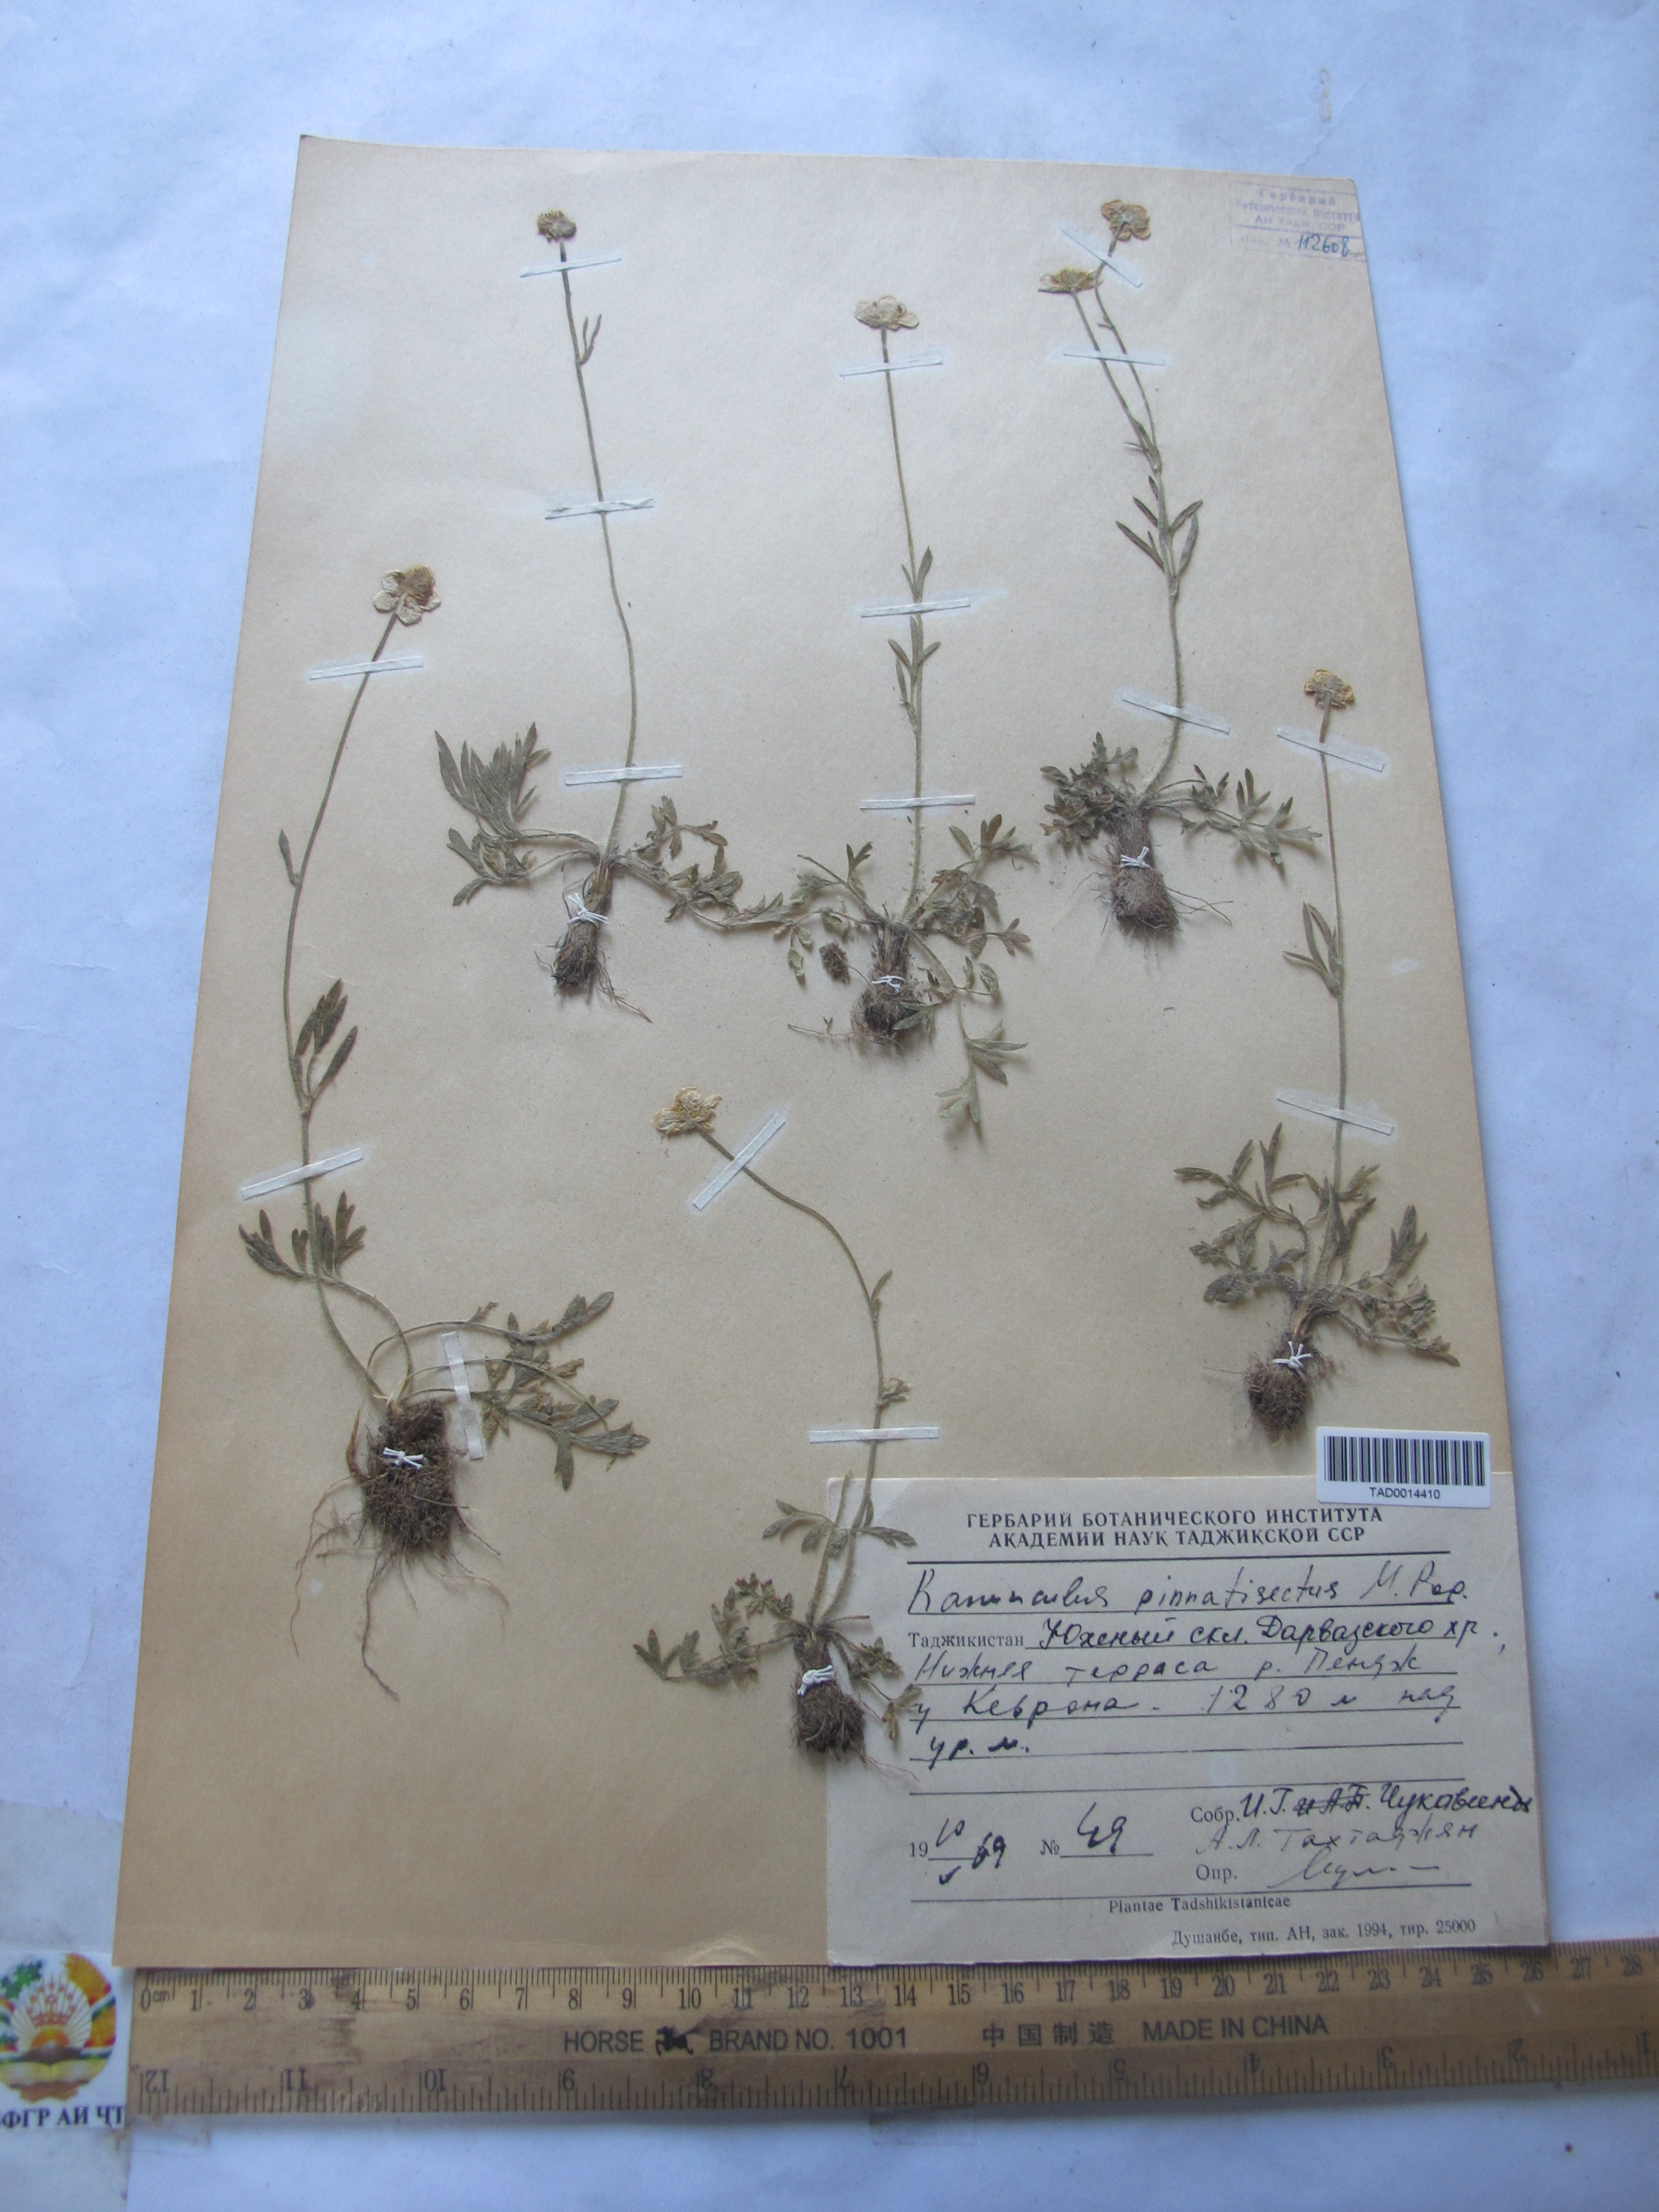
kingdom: Plantae
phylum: Tracheophyta
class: Magnoliopsida
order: Ranunculales
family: Ranunculaceae
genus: Ranunculus
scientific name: Ranunculus leptorrhynchus
